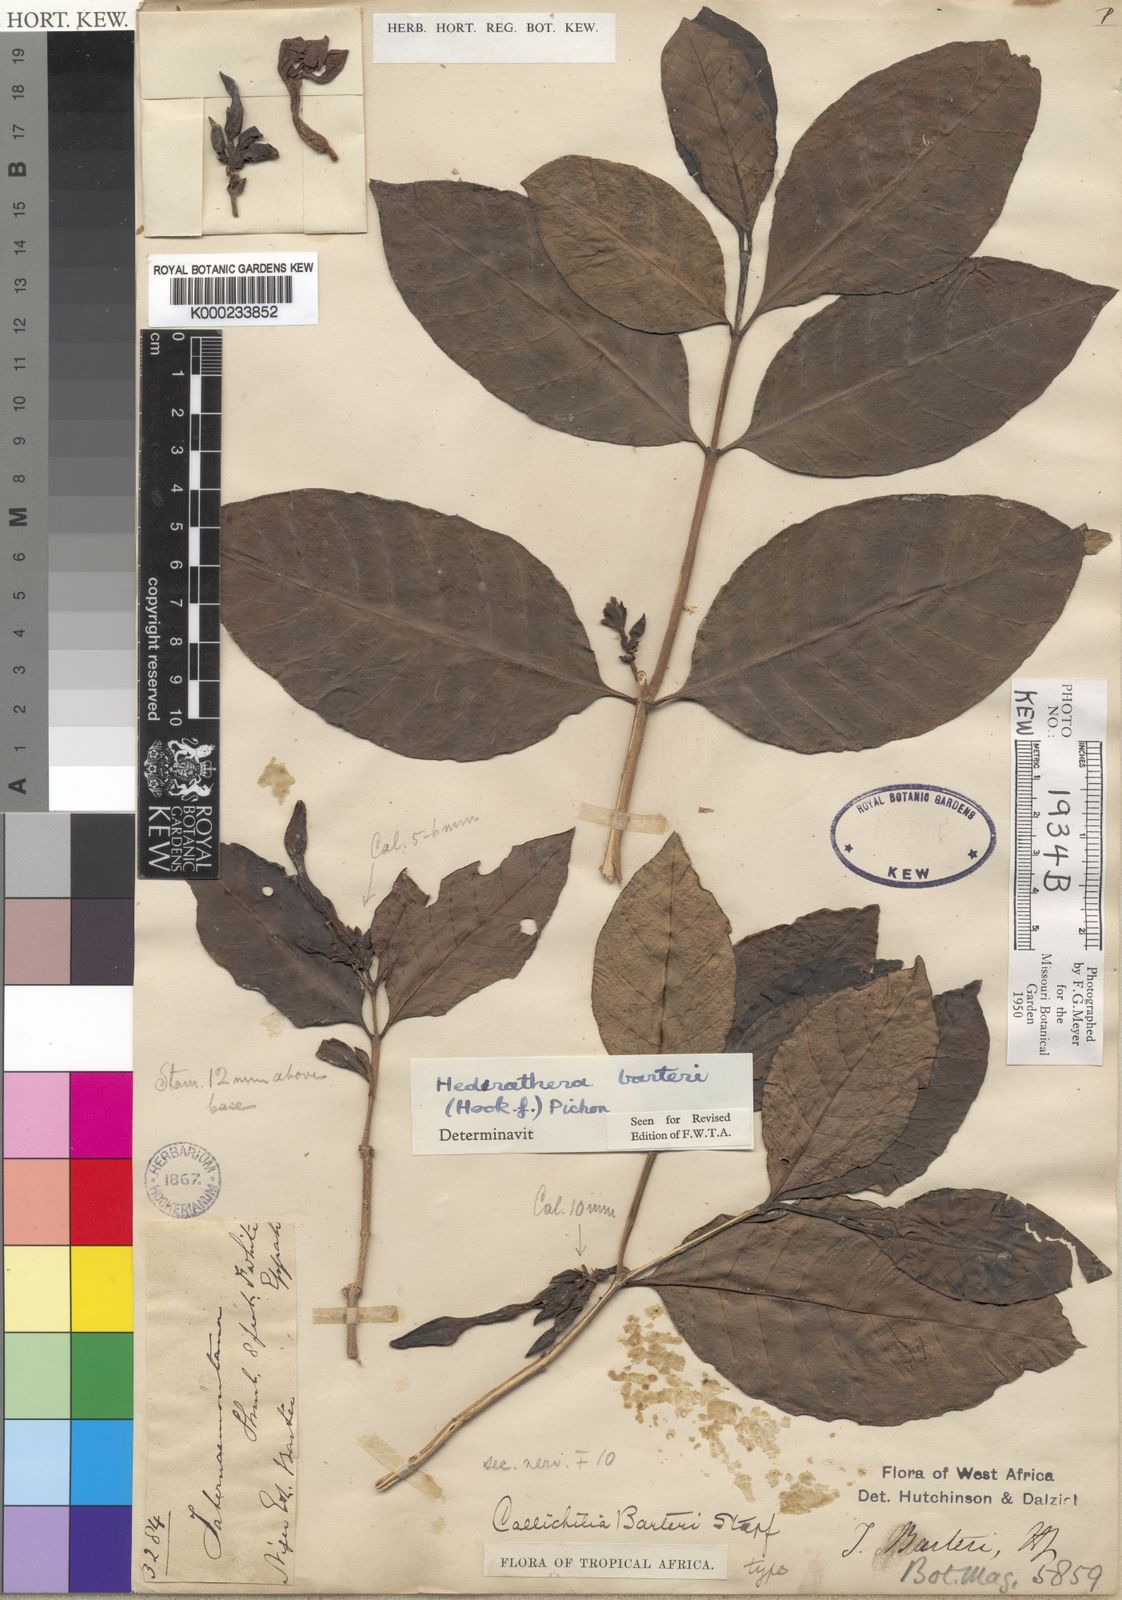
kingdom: Plantae
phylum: Tracheophyta
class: Magnoliopsida
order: Gentianales
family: Apocynaceae
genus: Callichilia
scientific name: Callichilia barteri
